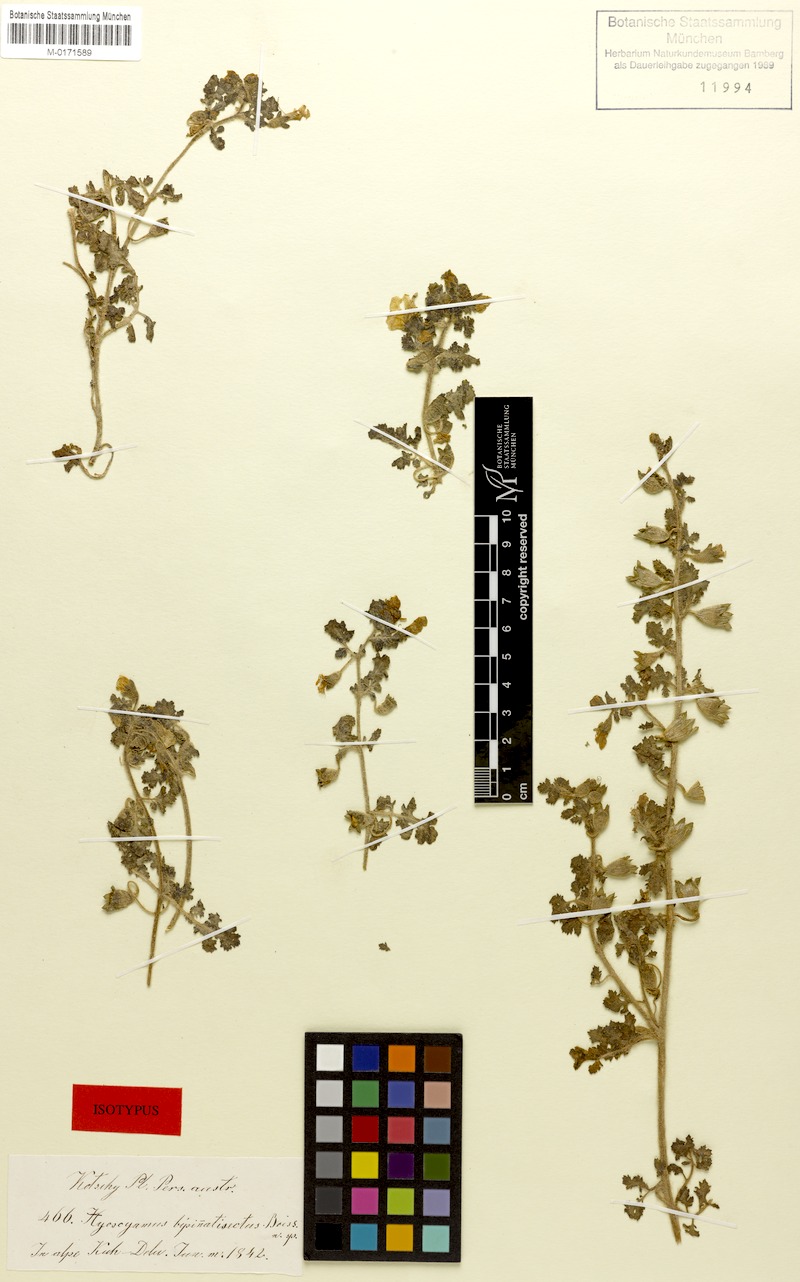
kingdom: Plantae
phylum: Tracheophyta
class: Magnoliopsida
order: Solanales
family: Solanaceae
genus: Hyoscyamus
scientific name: Hyoscyamus senecionis
